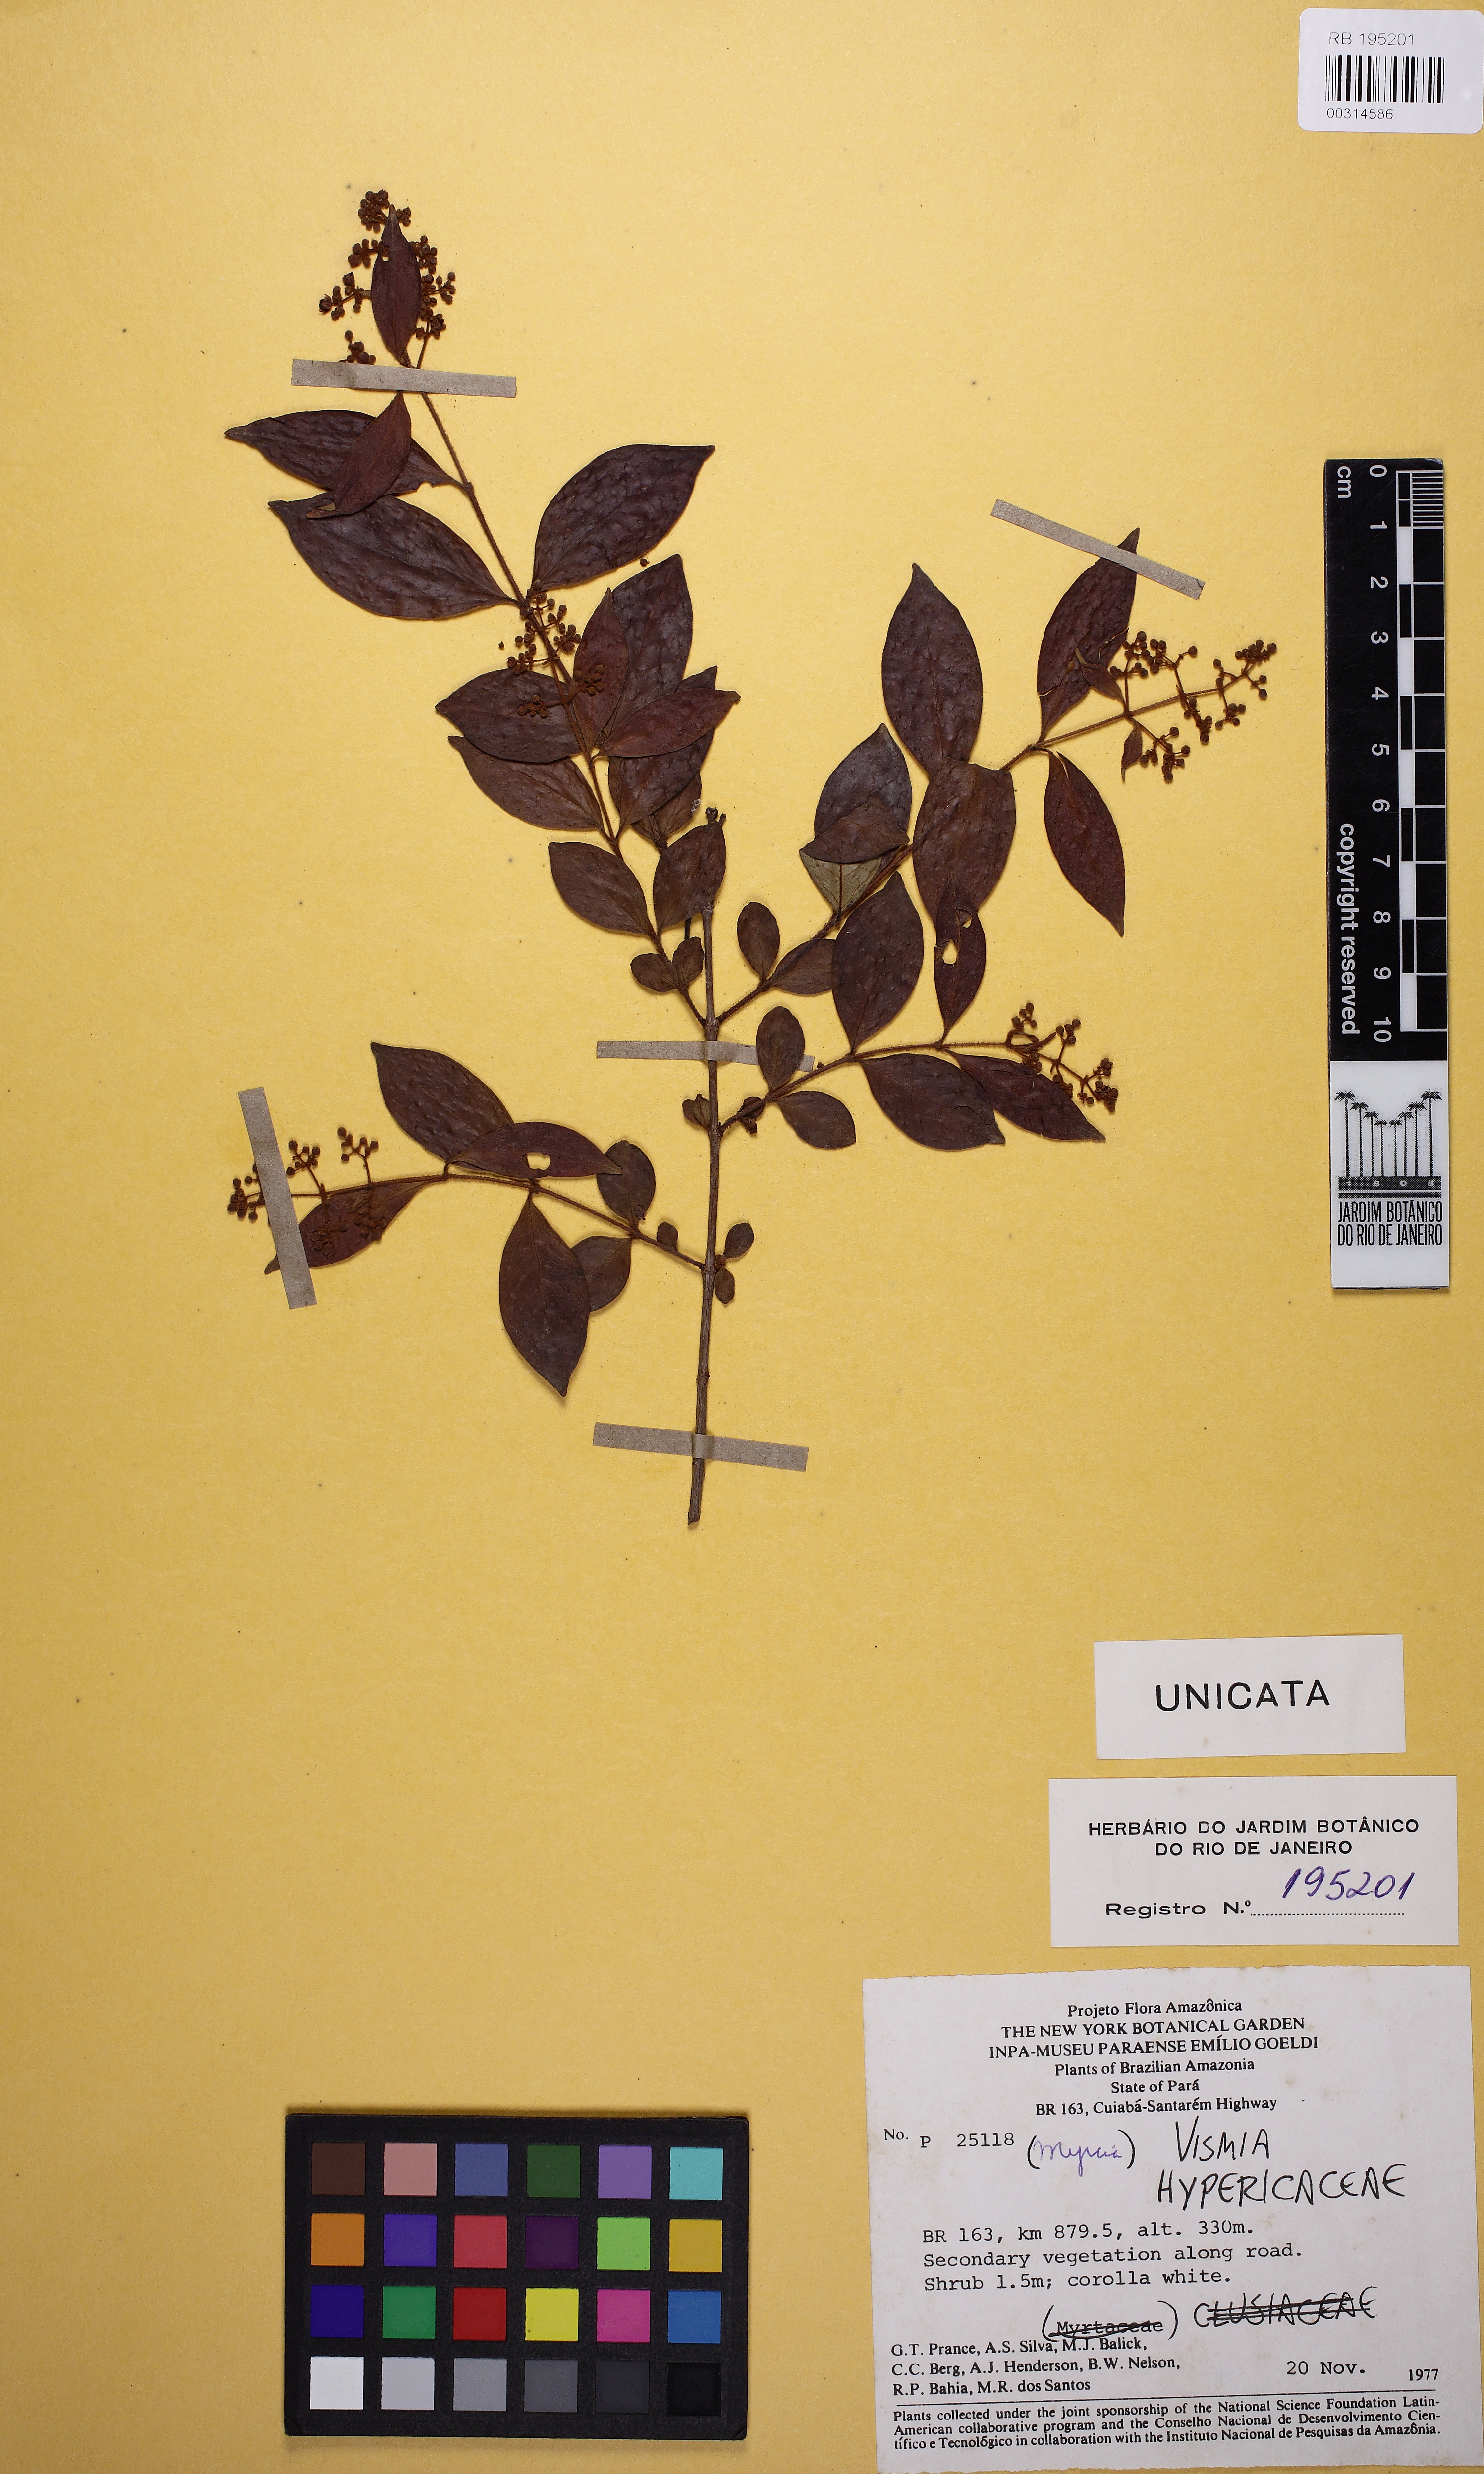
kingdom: Plantae
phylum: Tracheophyta
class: Magnoliopsida
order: Malpighiales
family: Hypericaceae
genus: Vismia
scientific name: Vismia cavalcantei
